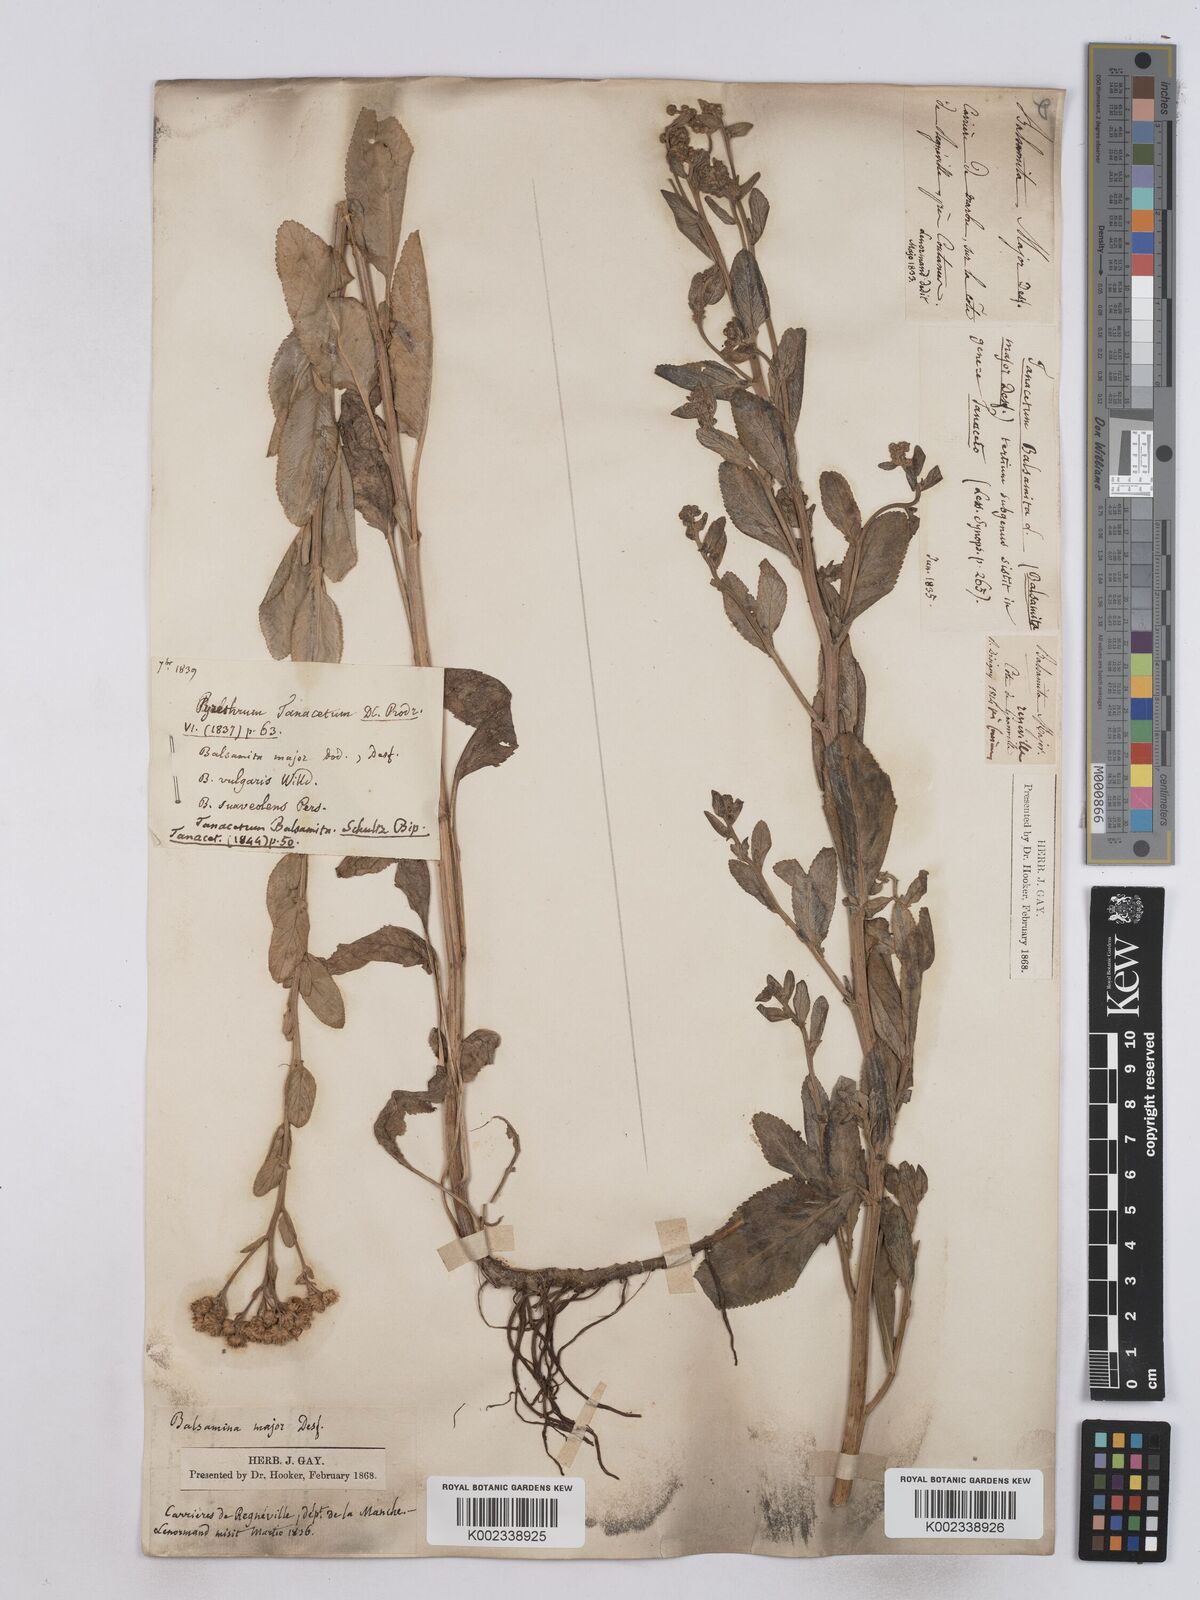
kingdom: Plantae
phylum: Tracheophyta
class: Magnoliopsida
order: Asterales
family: Asteraceae
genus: Tanacetum
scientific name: Tanacetum balsamita
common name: Costmary
